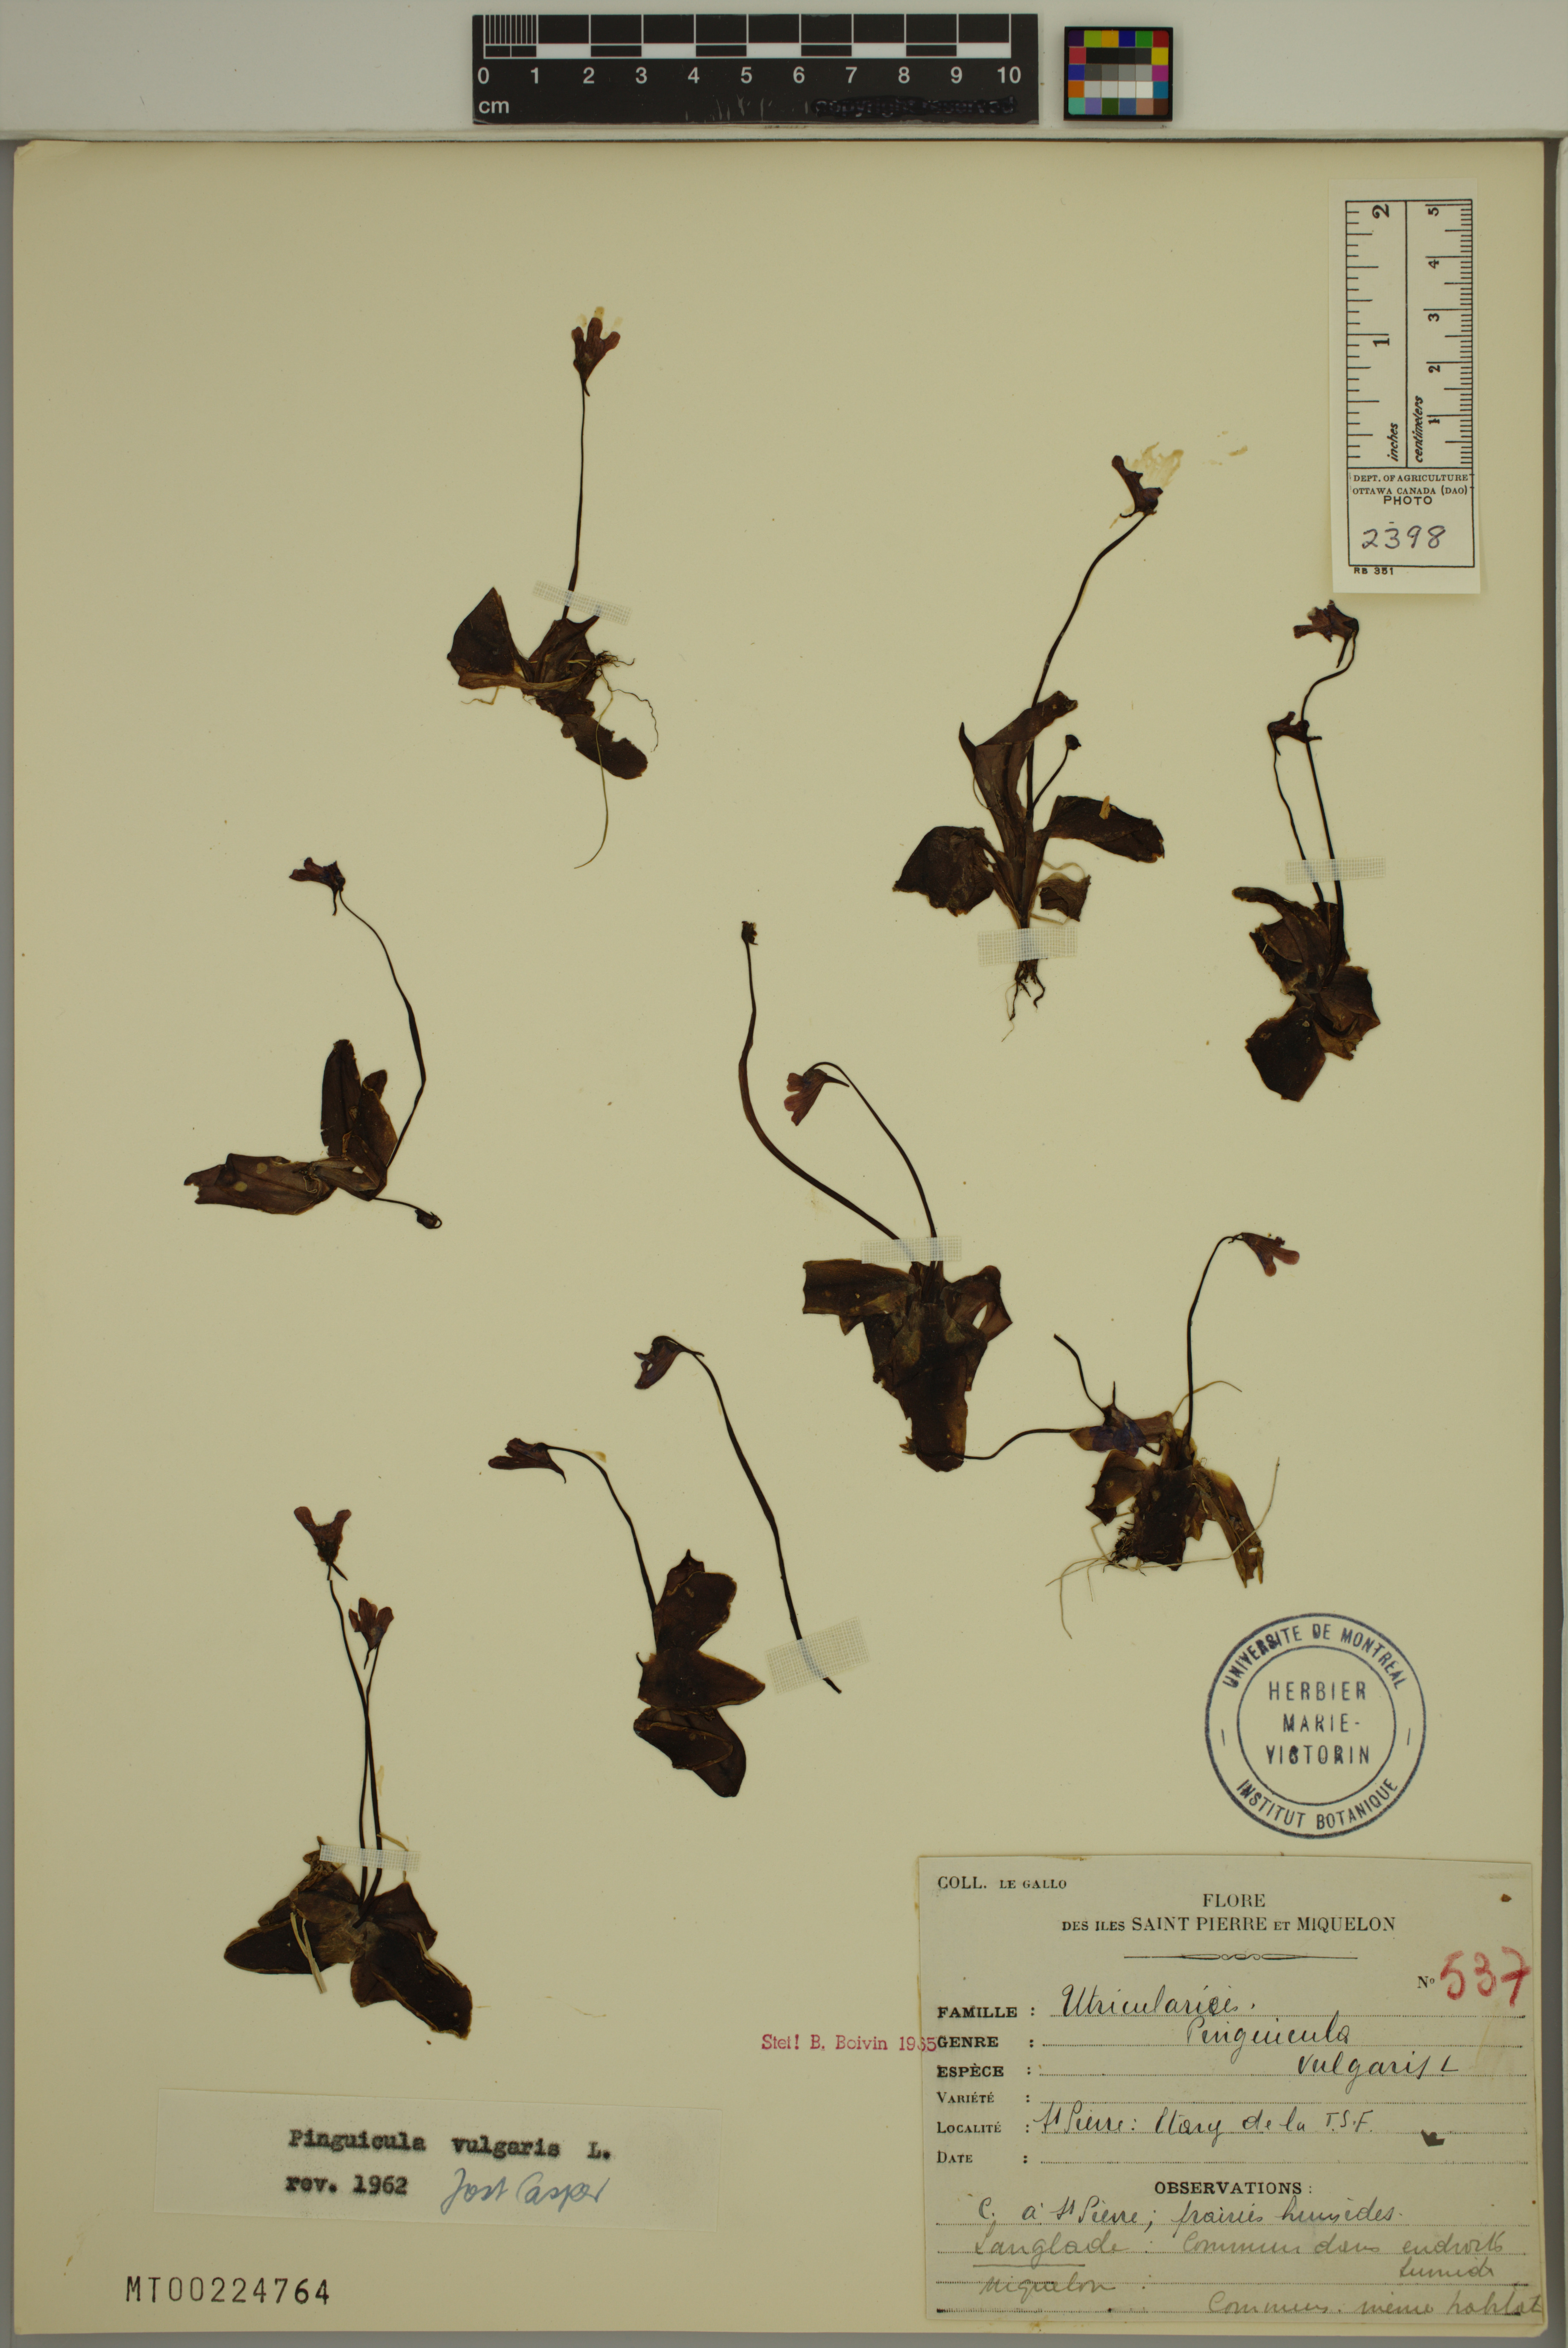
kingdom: Plantae
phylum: Tracheophyta
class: Magnoliopsida
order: Lamiales
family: Lentibulariaceae
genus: Pinguicula
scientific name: Pinguicula vulgaris
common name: Common butterwort
